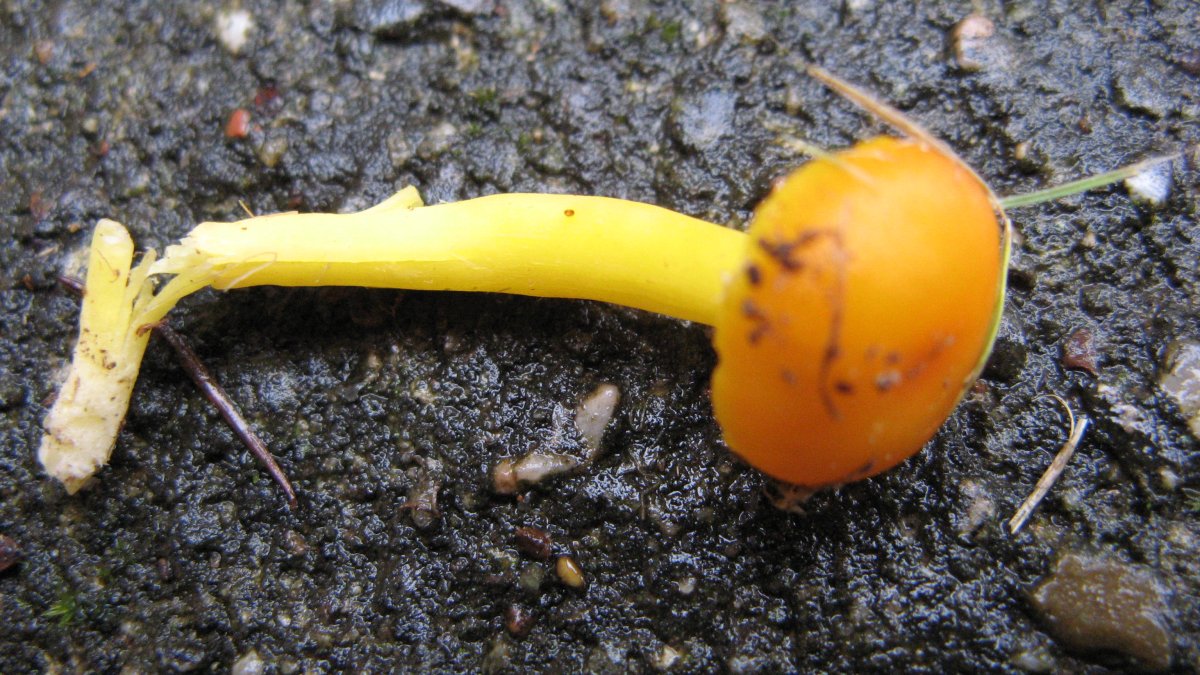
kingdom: Fungi
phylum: Basidiomycota
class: Agaricomycetes
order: Agaricales
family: Hygrophoraceae
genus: Hygrocybe
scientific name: Hygrocybe ceracea
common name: voksgul vokshat
